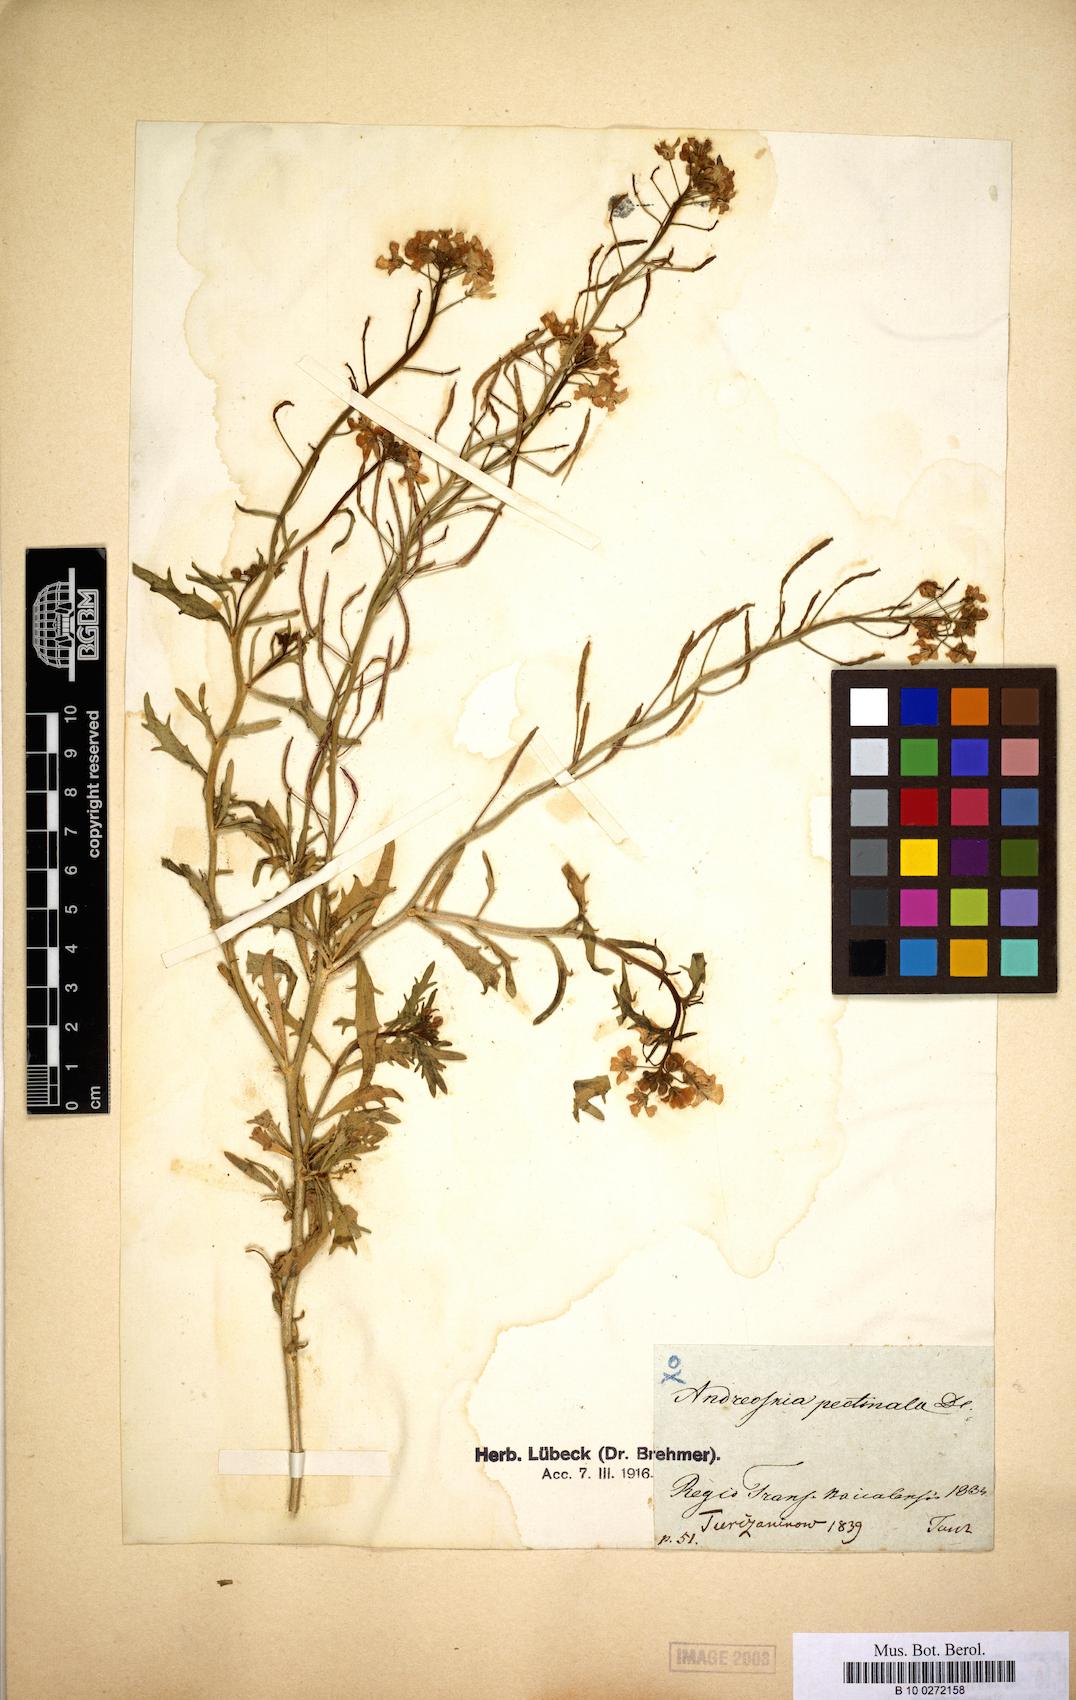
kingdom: Plantae
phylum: Tracheophyta
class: Magnoliopsida
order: Brassicales
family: Brassicaceae
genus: Dontostemon
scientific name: Dontostemon pinnatifidus
